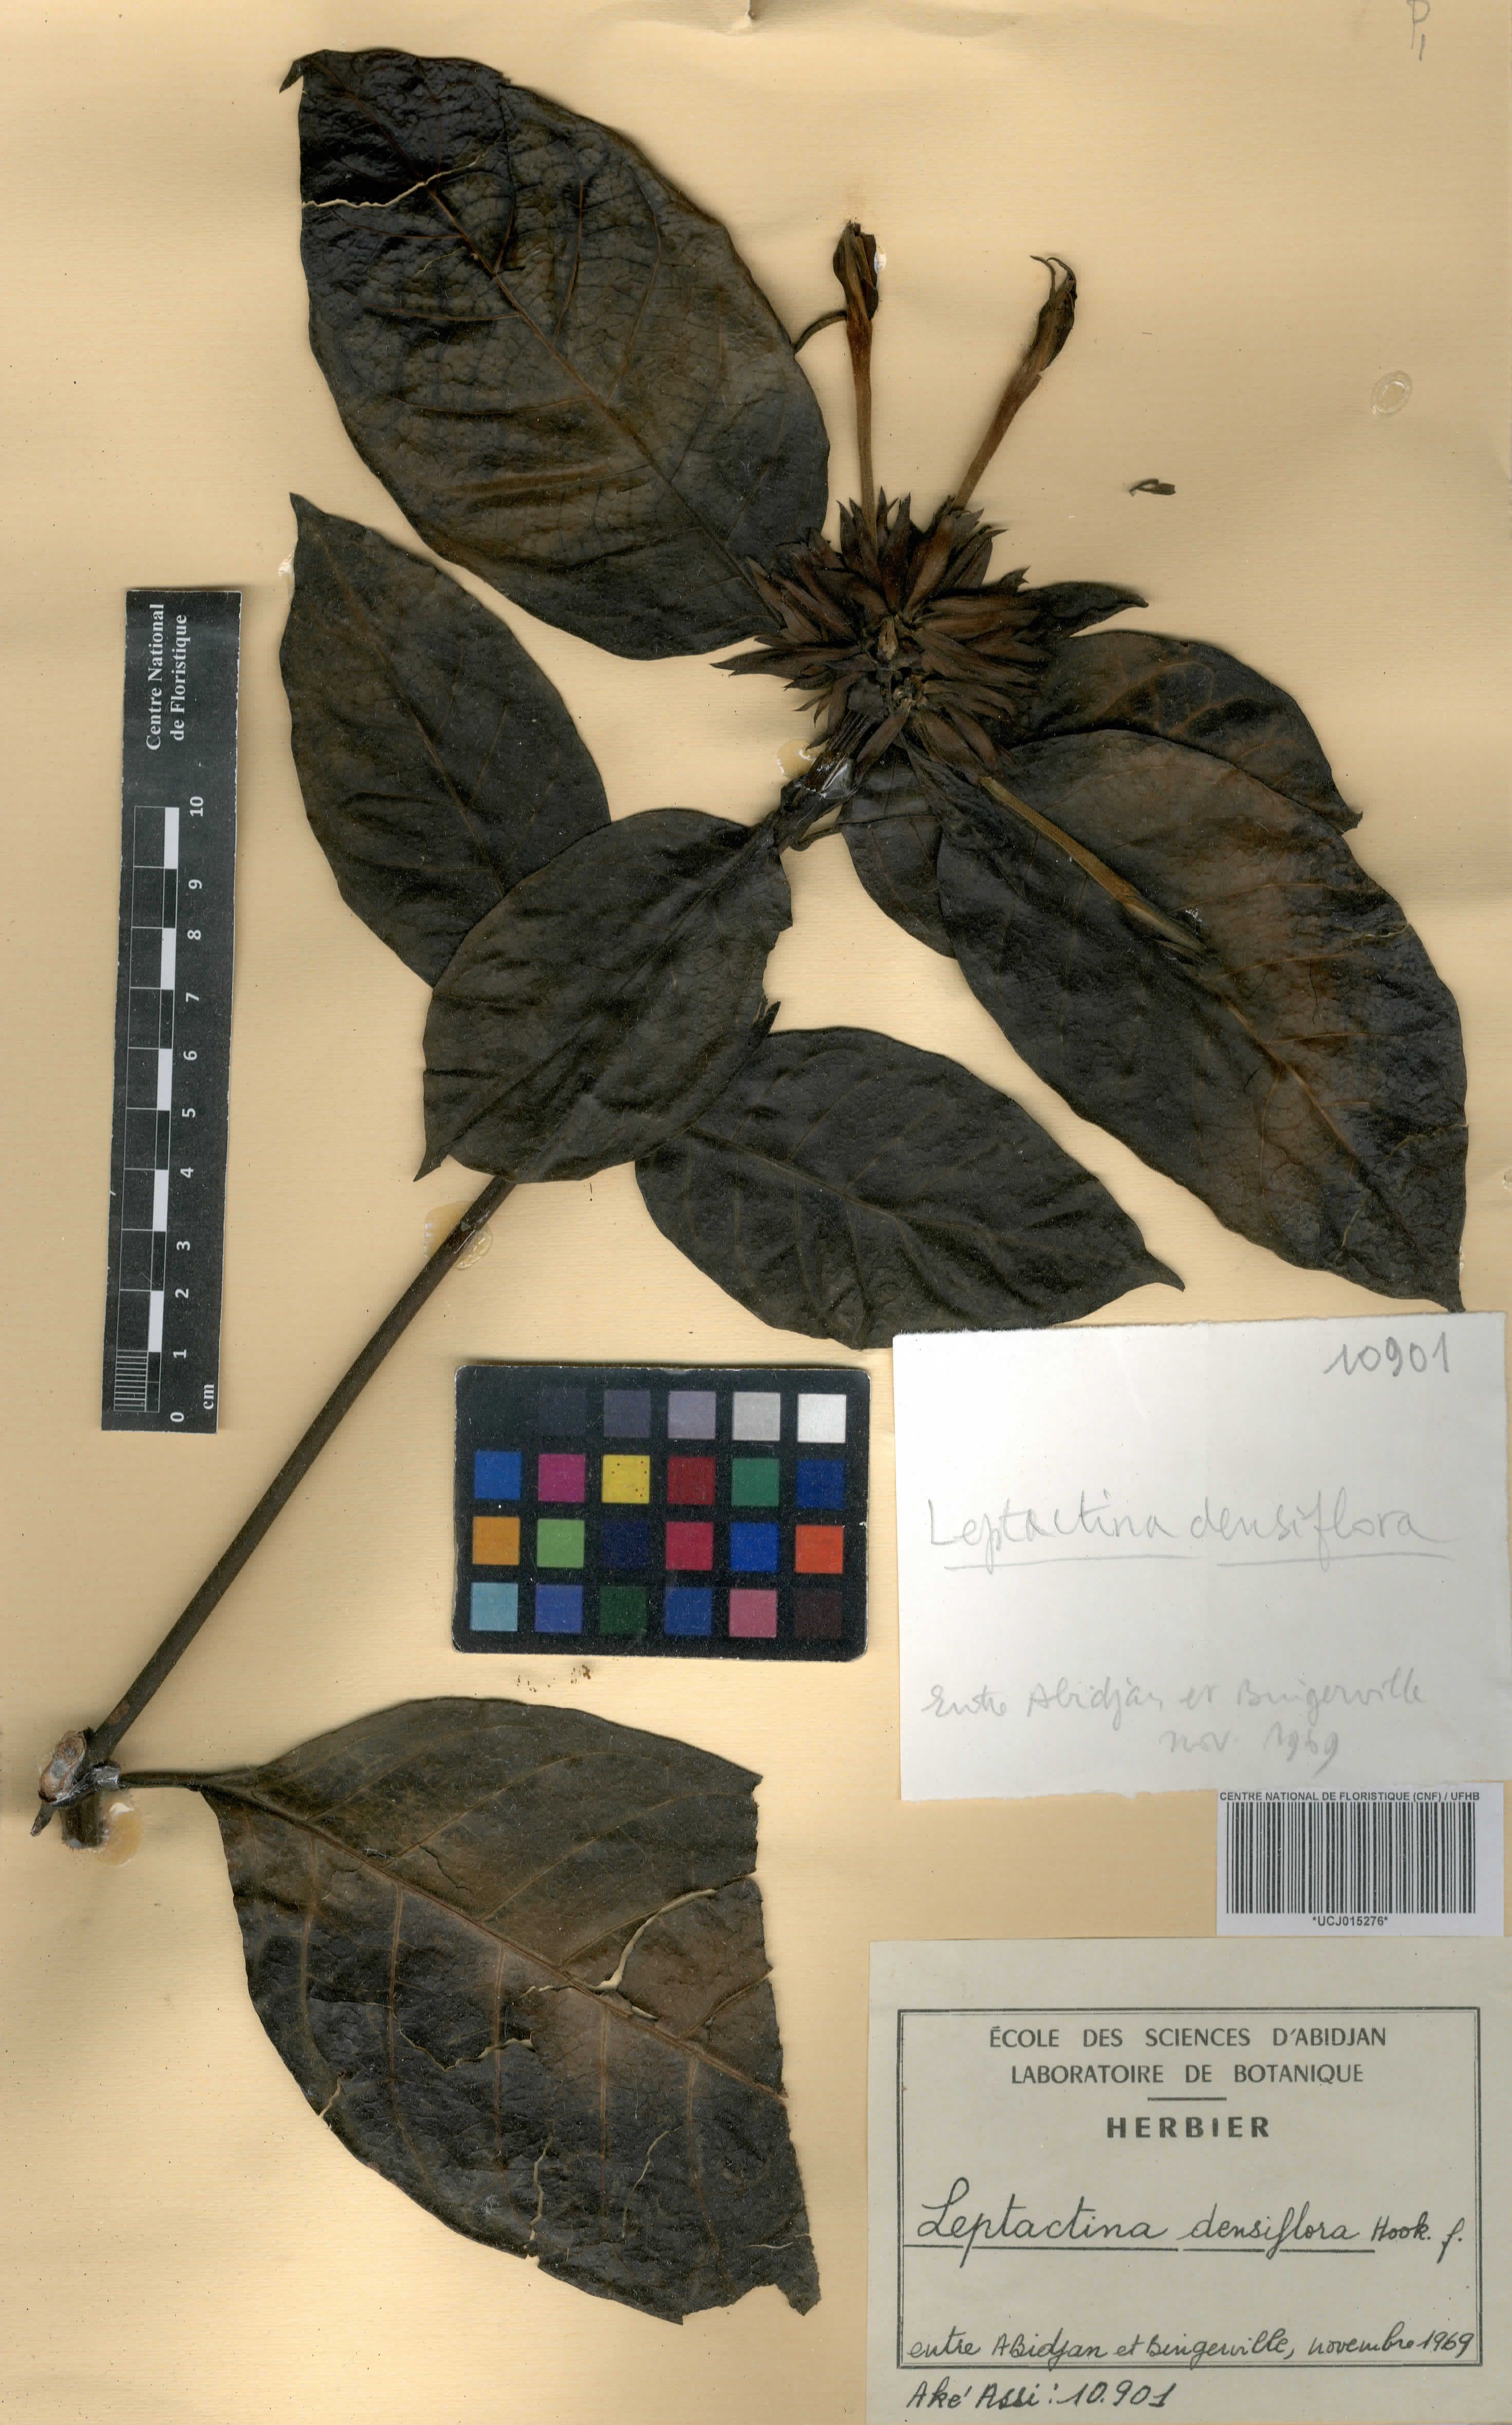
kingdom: Plantae
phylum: Tracheophyta
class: Magnoliopsida
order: Gentianales
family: Rubiaceae
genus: Leptactina
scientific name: Leptactina densiflora
